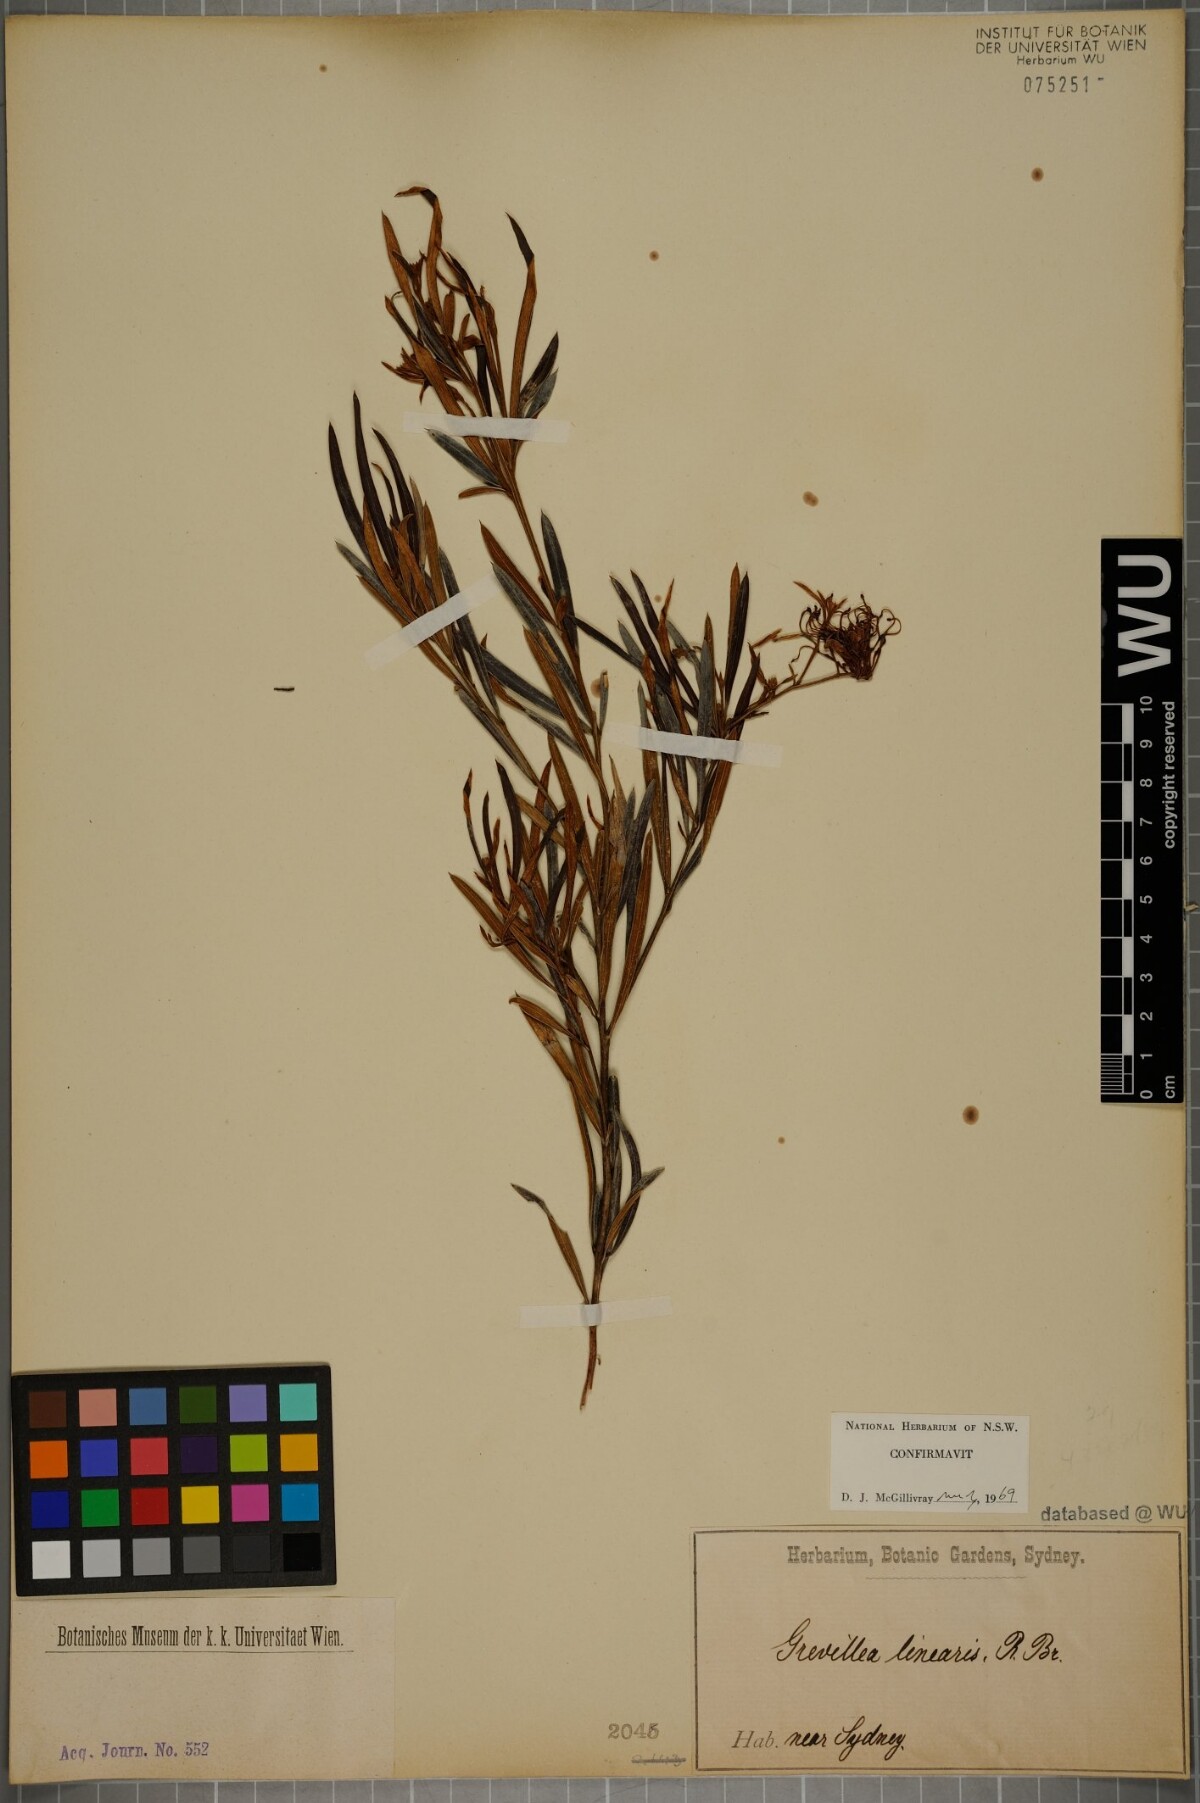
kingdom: Plantae
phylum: Tracheophyta
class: Magnoliopsida
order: Proteales
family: Proteaceae
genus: Grevillea
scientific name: Grevillea linearifolia
